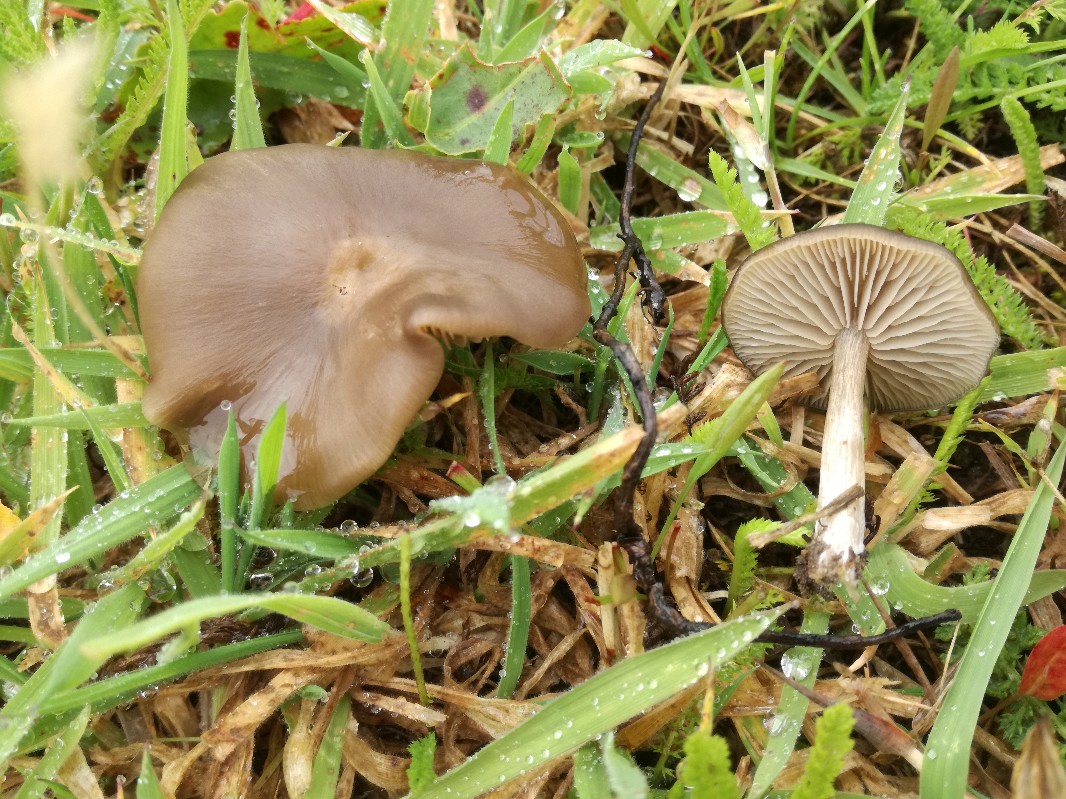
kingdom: Fungi
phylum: Basidiomycota
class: Agaricomycetes
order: Agaricales
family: Entolomataceae
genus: Entoloma
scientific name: Entoloma sericeum
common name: silkeglinsende rødblad
